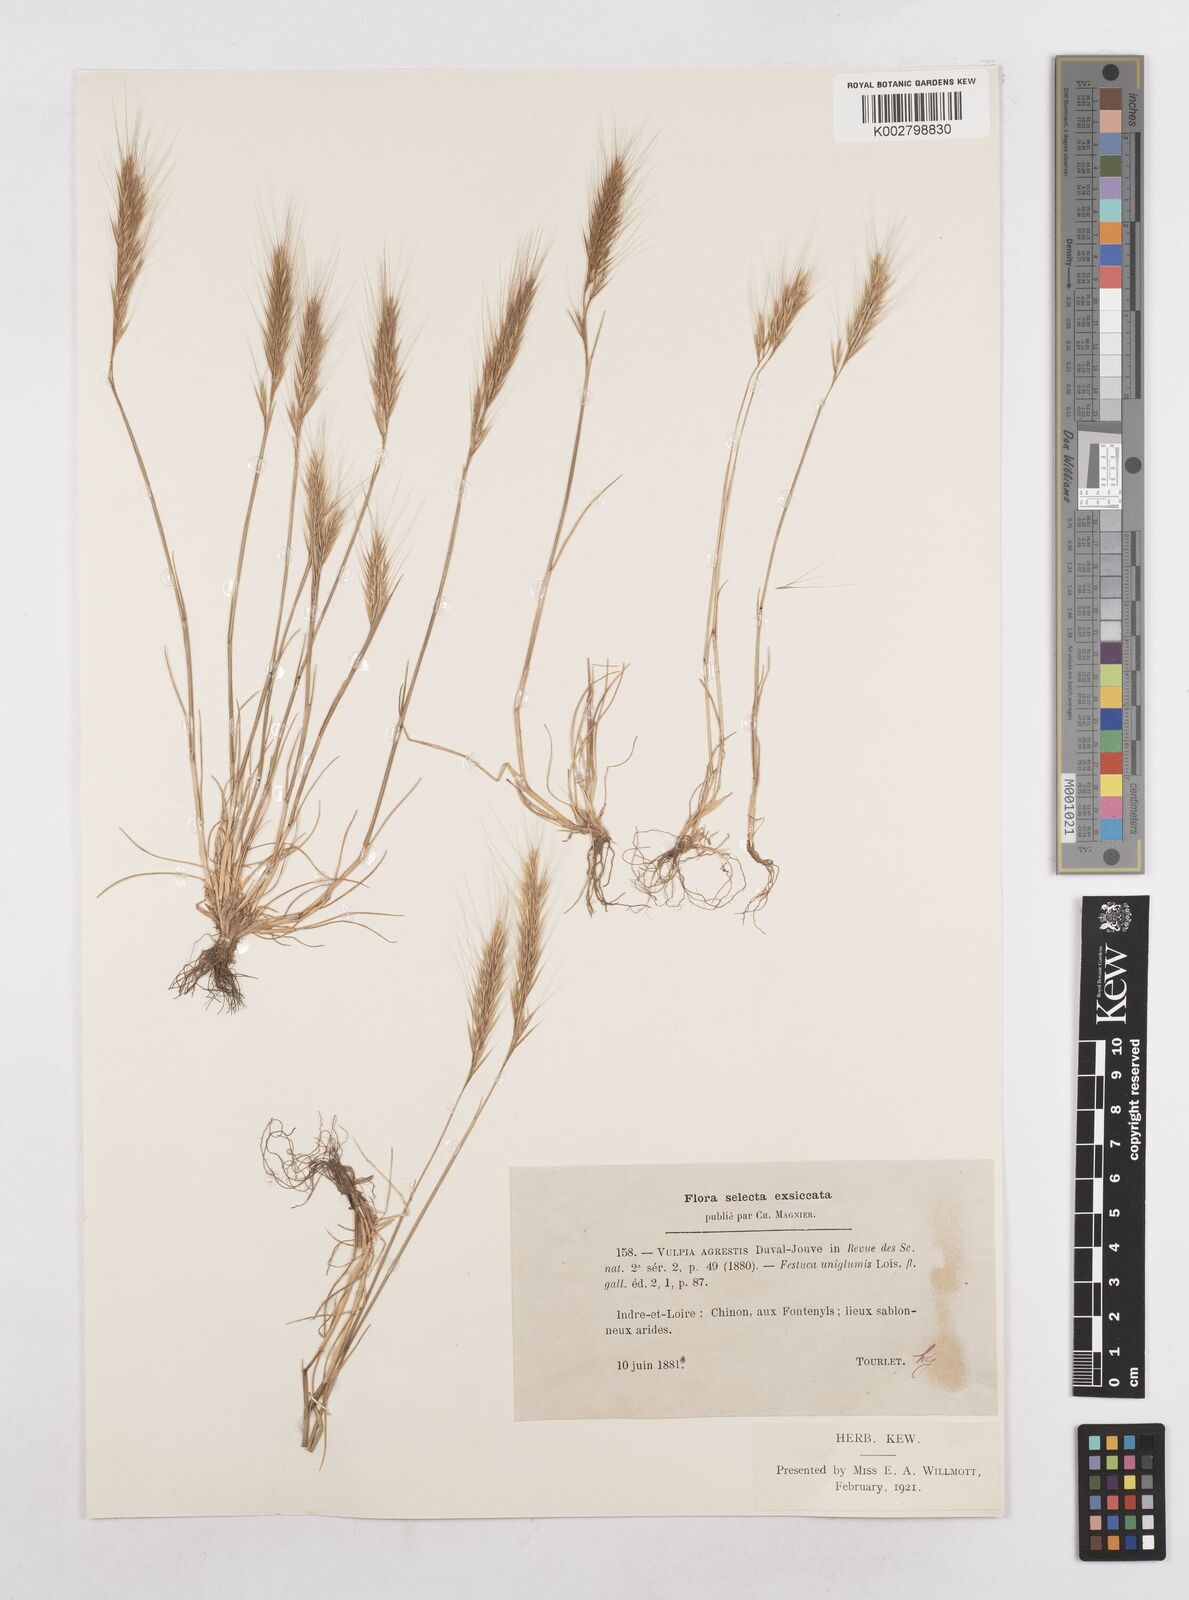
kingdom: Plantae
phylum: Tracheophyta
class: Liliopsida
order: Poales
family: Poaceae
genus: Festuca
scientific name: Festuca membranacea
